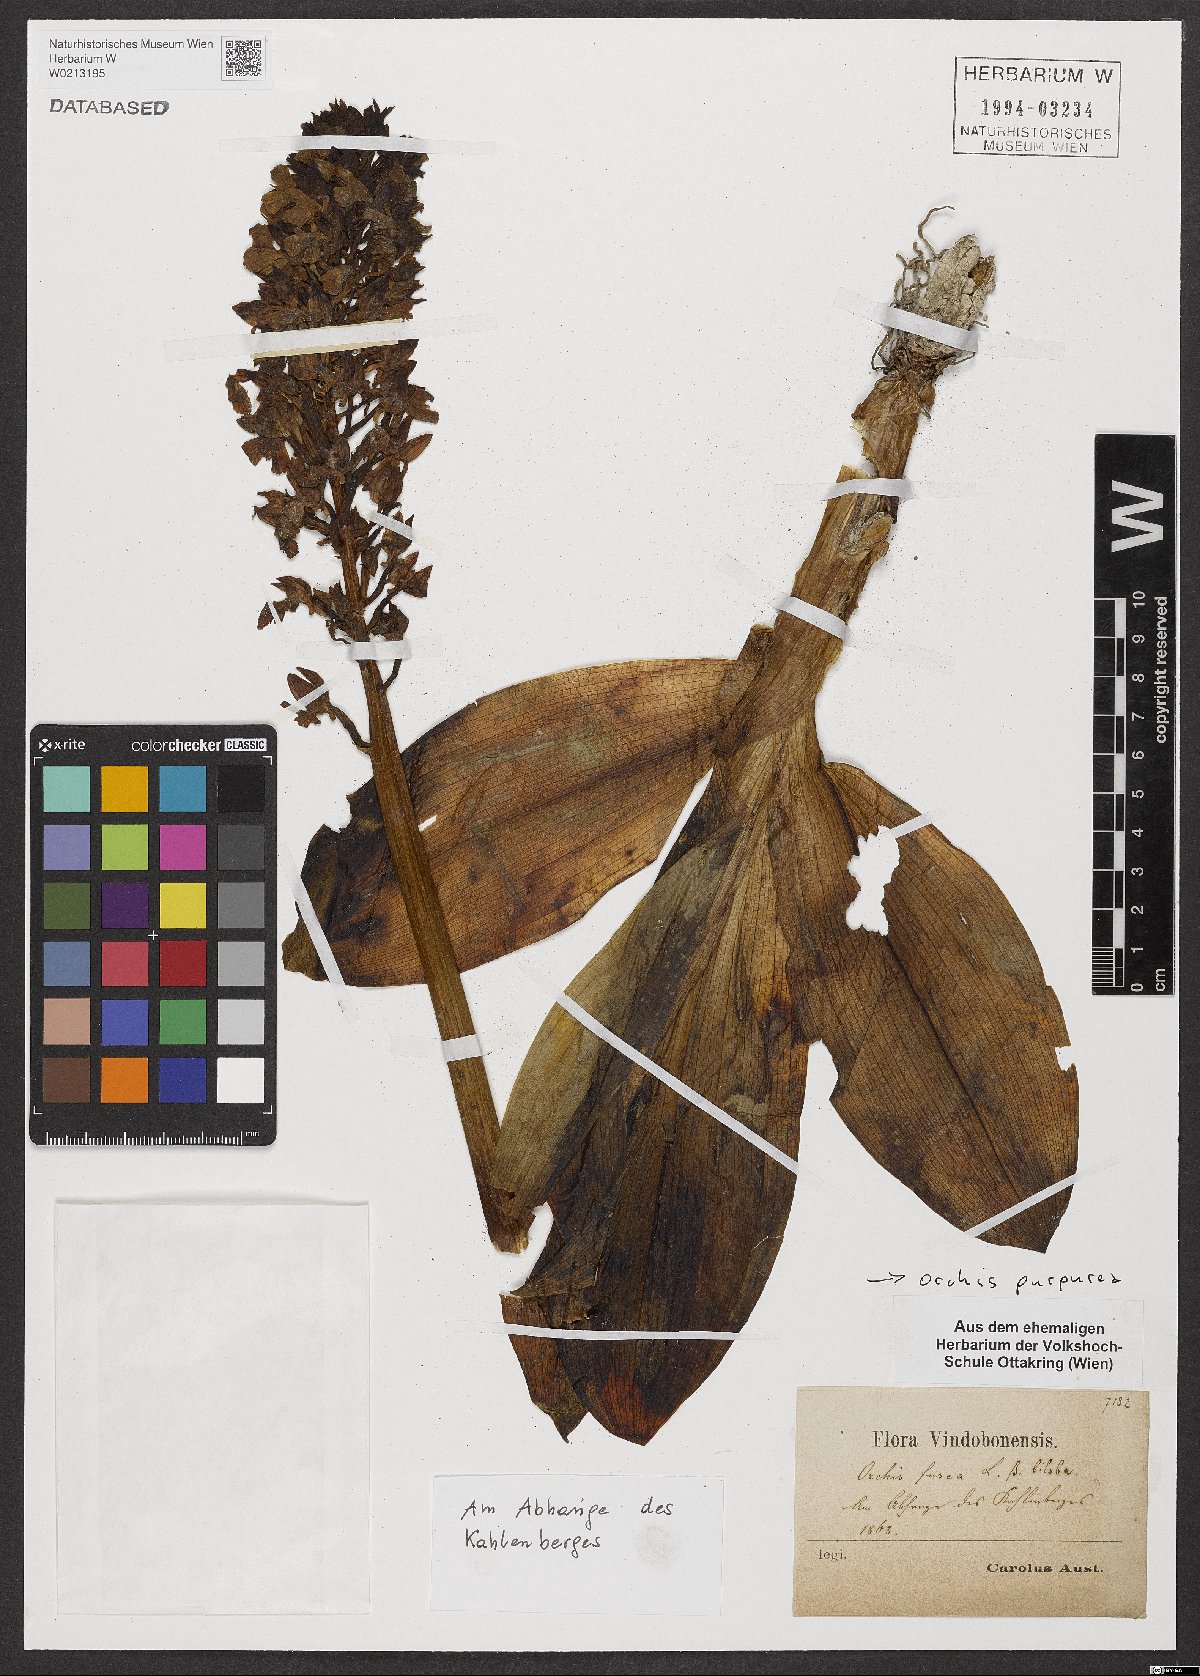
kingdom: Plantae
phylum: Tracheophyta
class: Liliopsida
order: Asparagales
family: Orchidaceae
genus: Orchis
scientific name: Orchis purpurea
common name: Lady orchid
